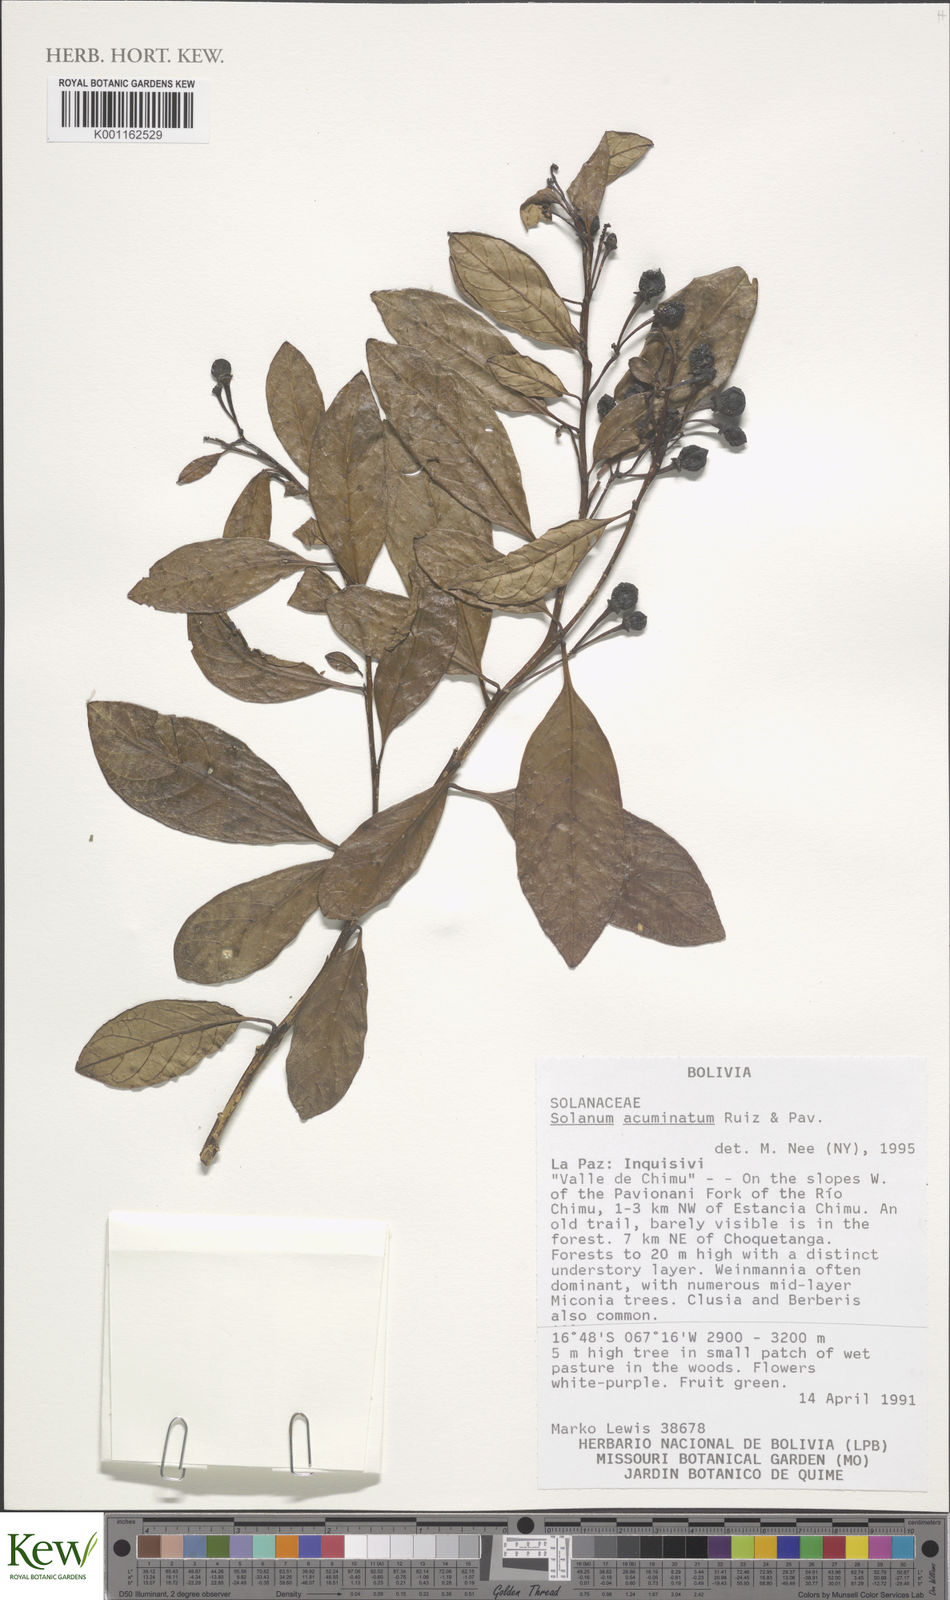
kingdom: Plantae
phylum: Tracheophyta
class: Magnoliopsida
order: Solanales
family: Solanaceae
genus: Solanum
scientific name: Solanum acuminatum
